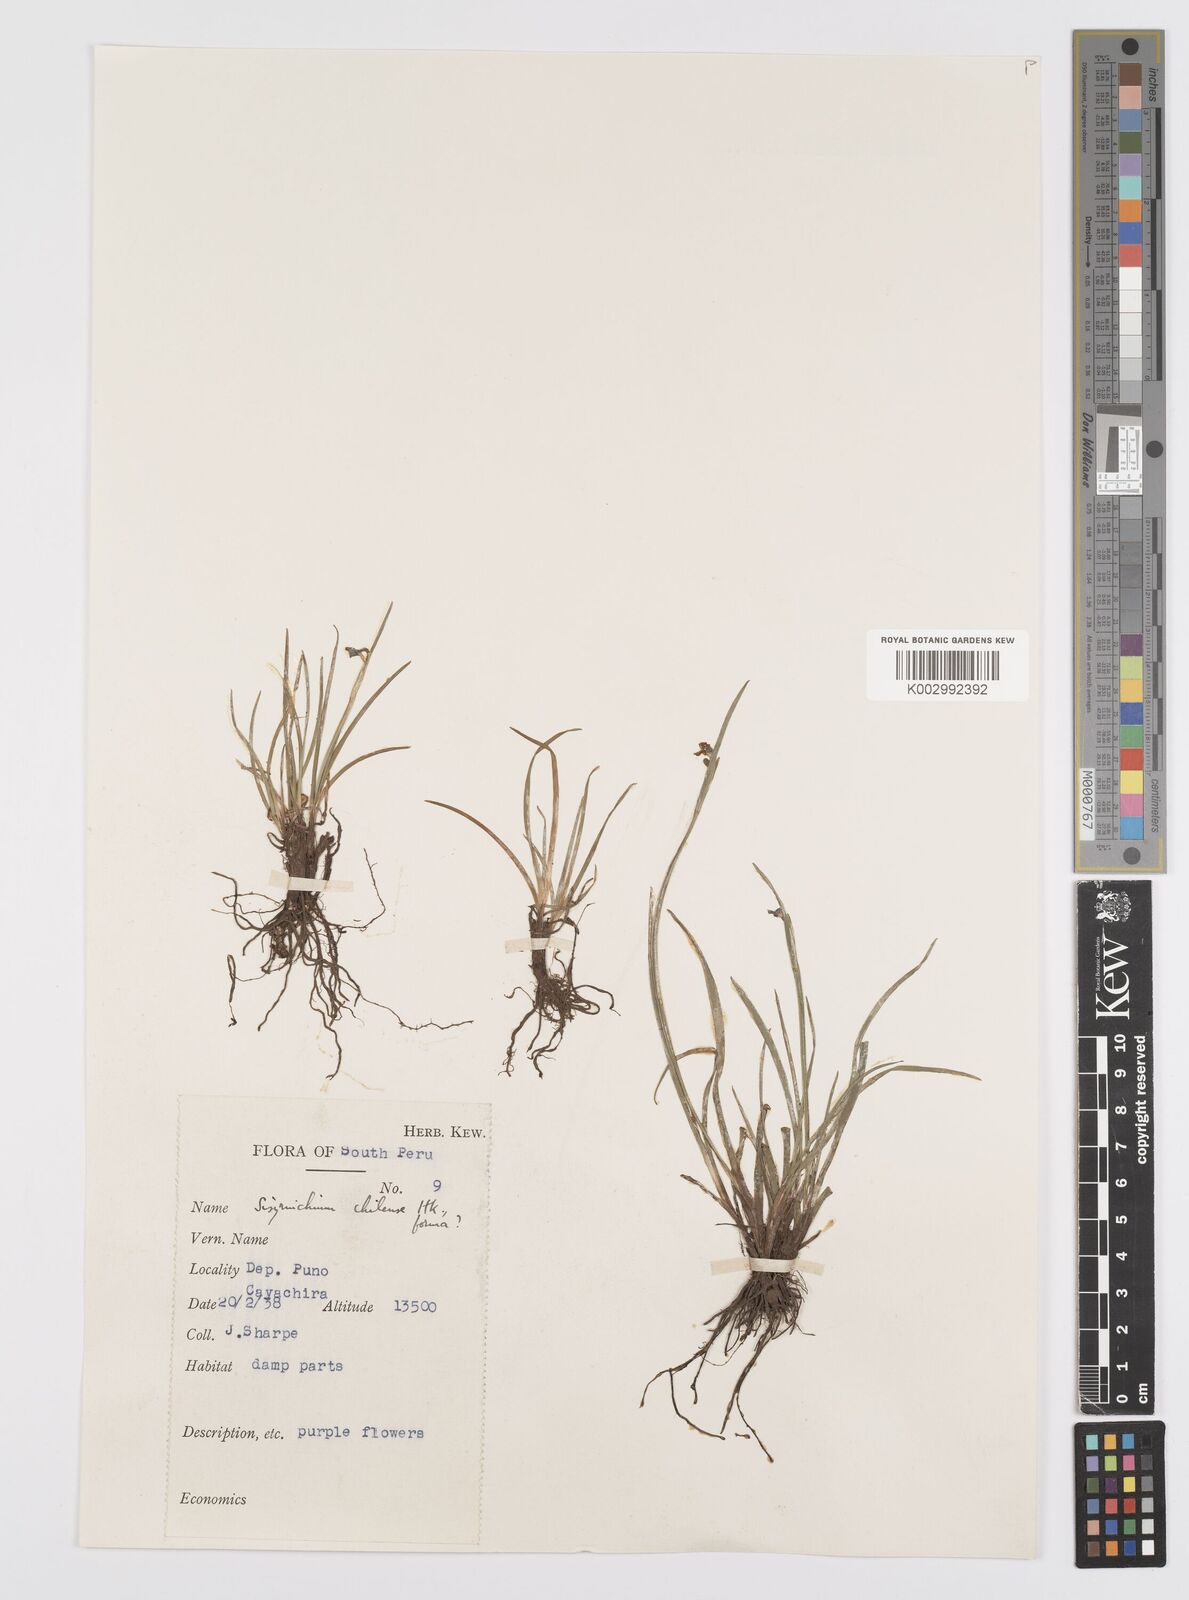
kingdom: Plantae
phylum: Tracheophyta
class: Liliopsida
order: Asparagales
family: Iridaceae
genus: Sisyrinchium
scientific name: Sisyrinchium chilense
